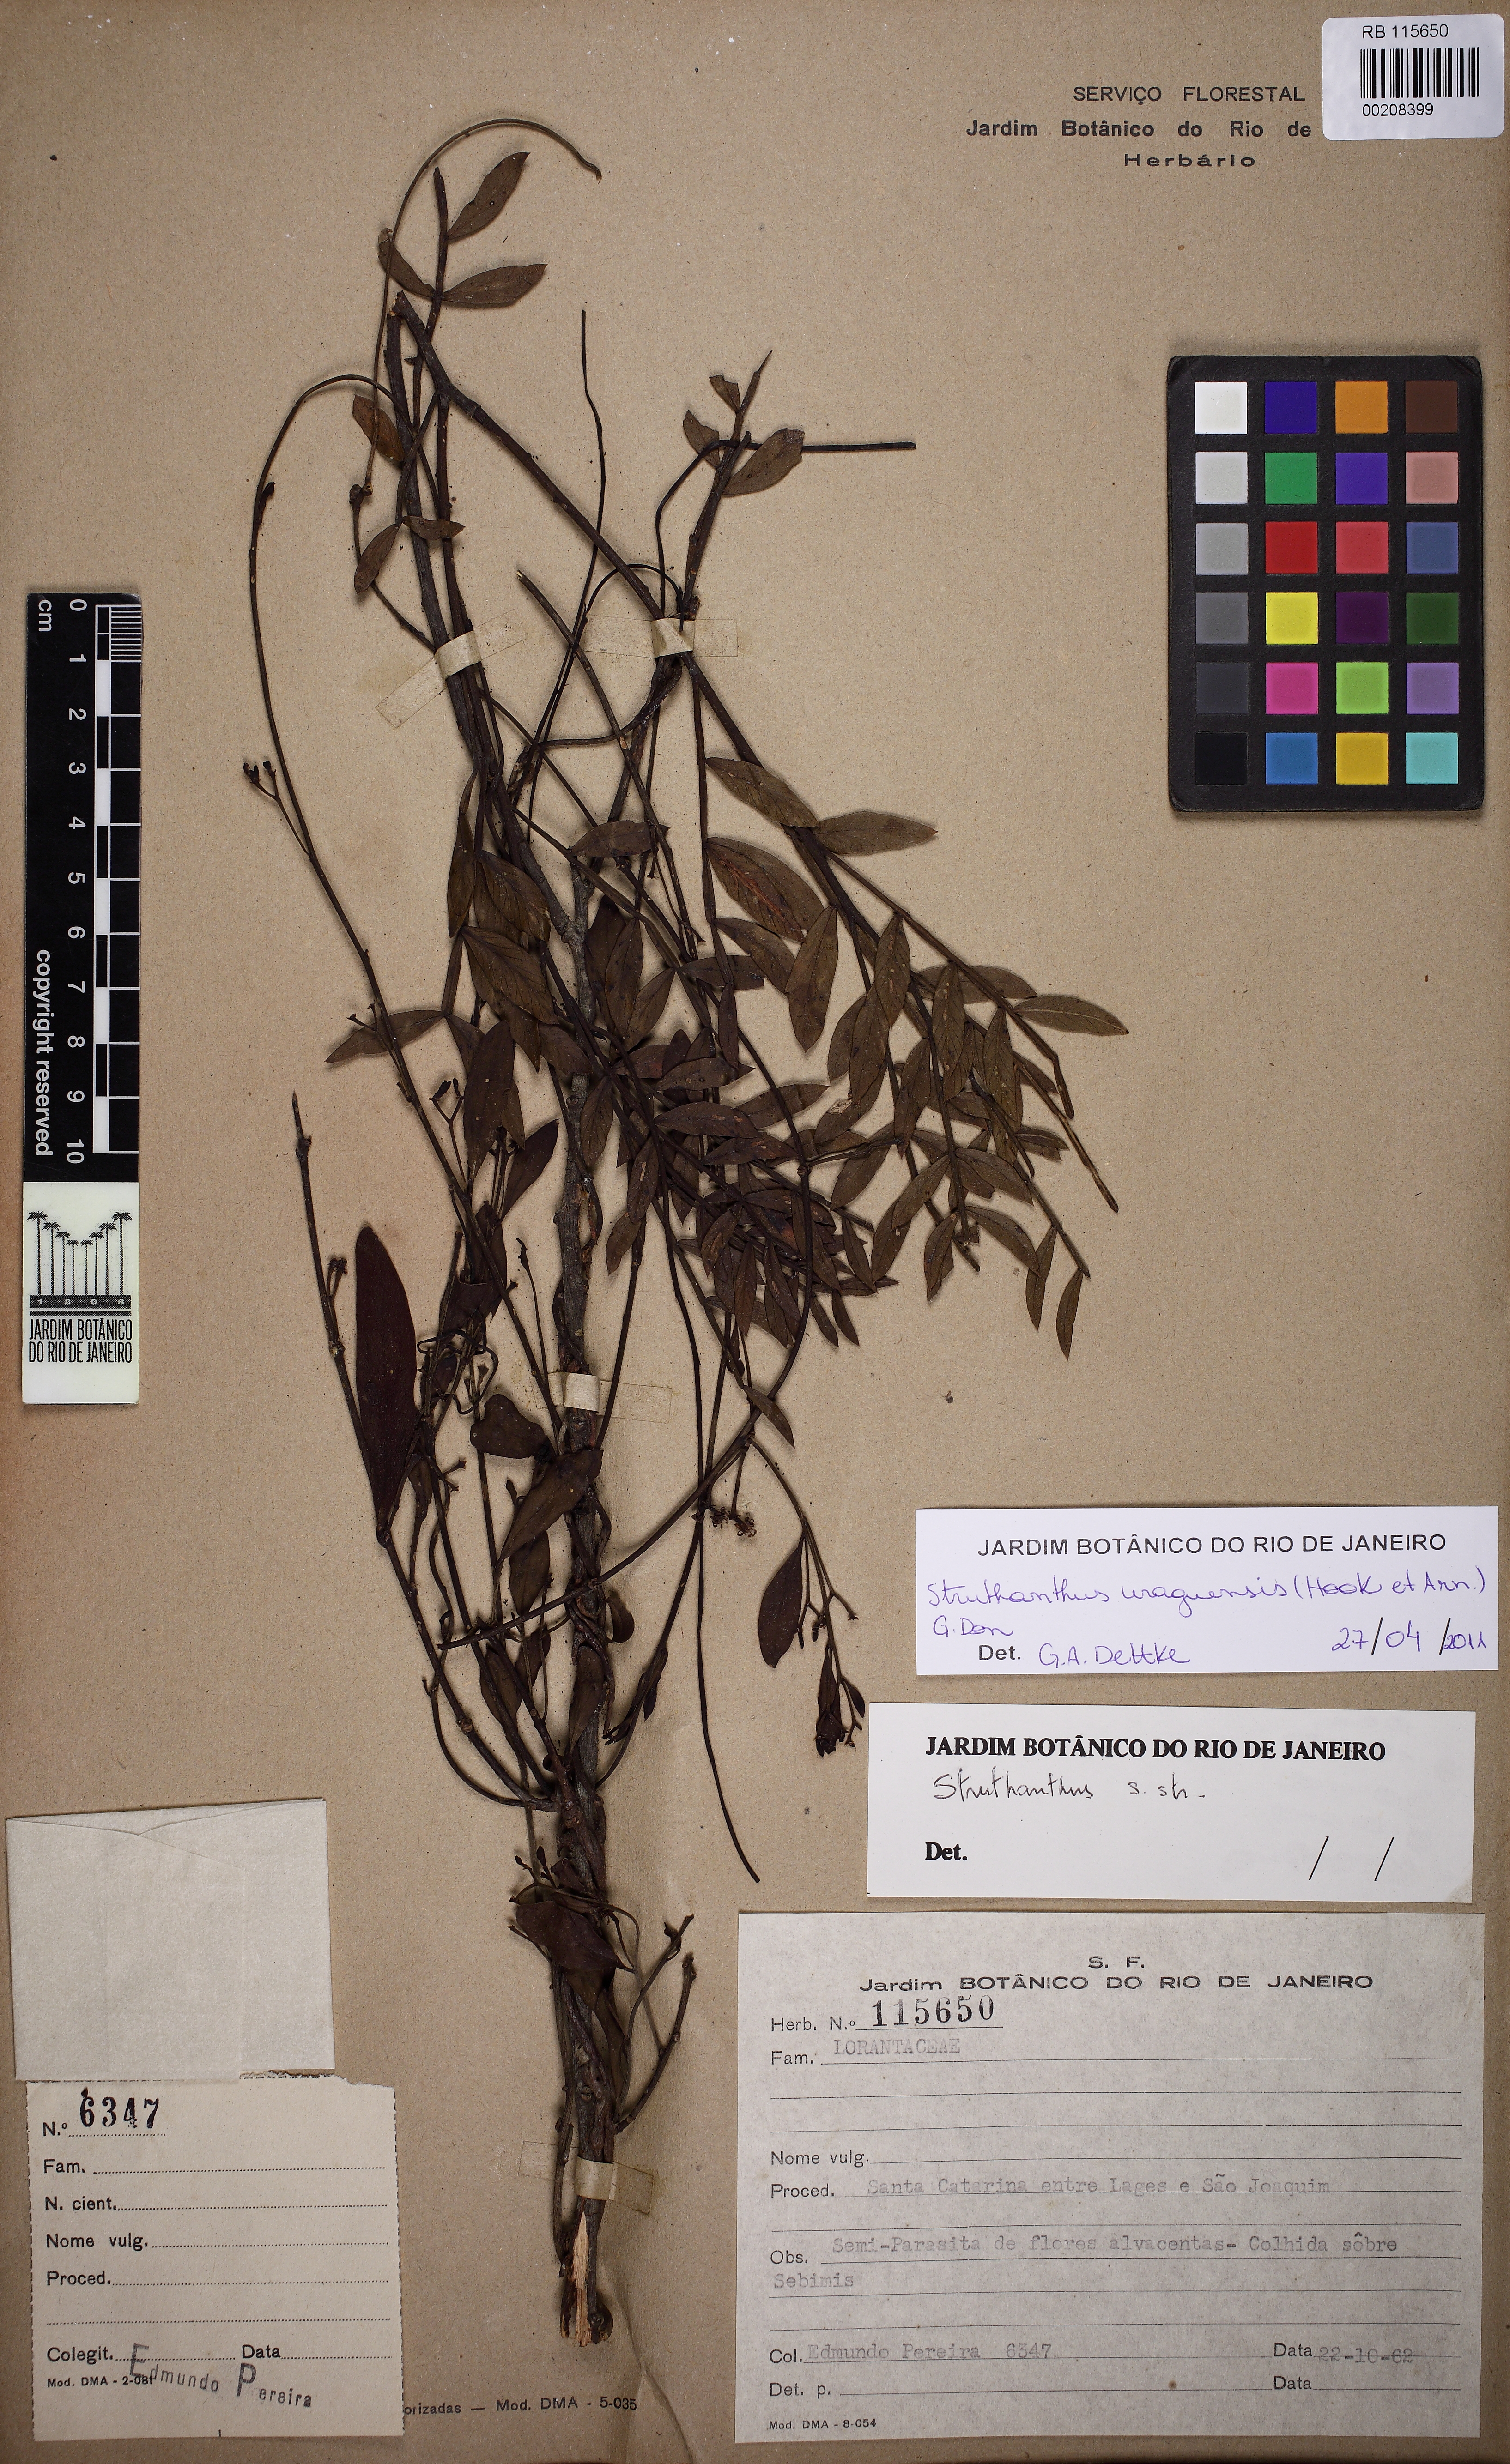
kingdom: Plantae
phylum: Tracheophyta
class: Magnoliopsida
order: Santalales
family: Loranthaceae
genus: Struthanthus
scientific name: Struthanthus uraguensis
